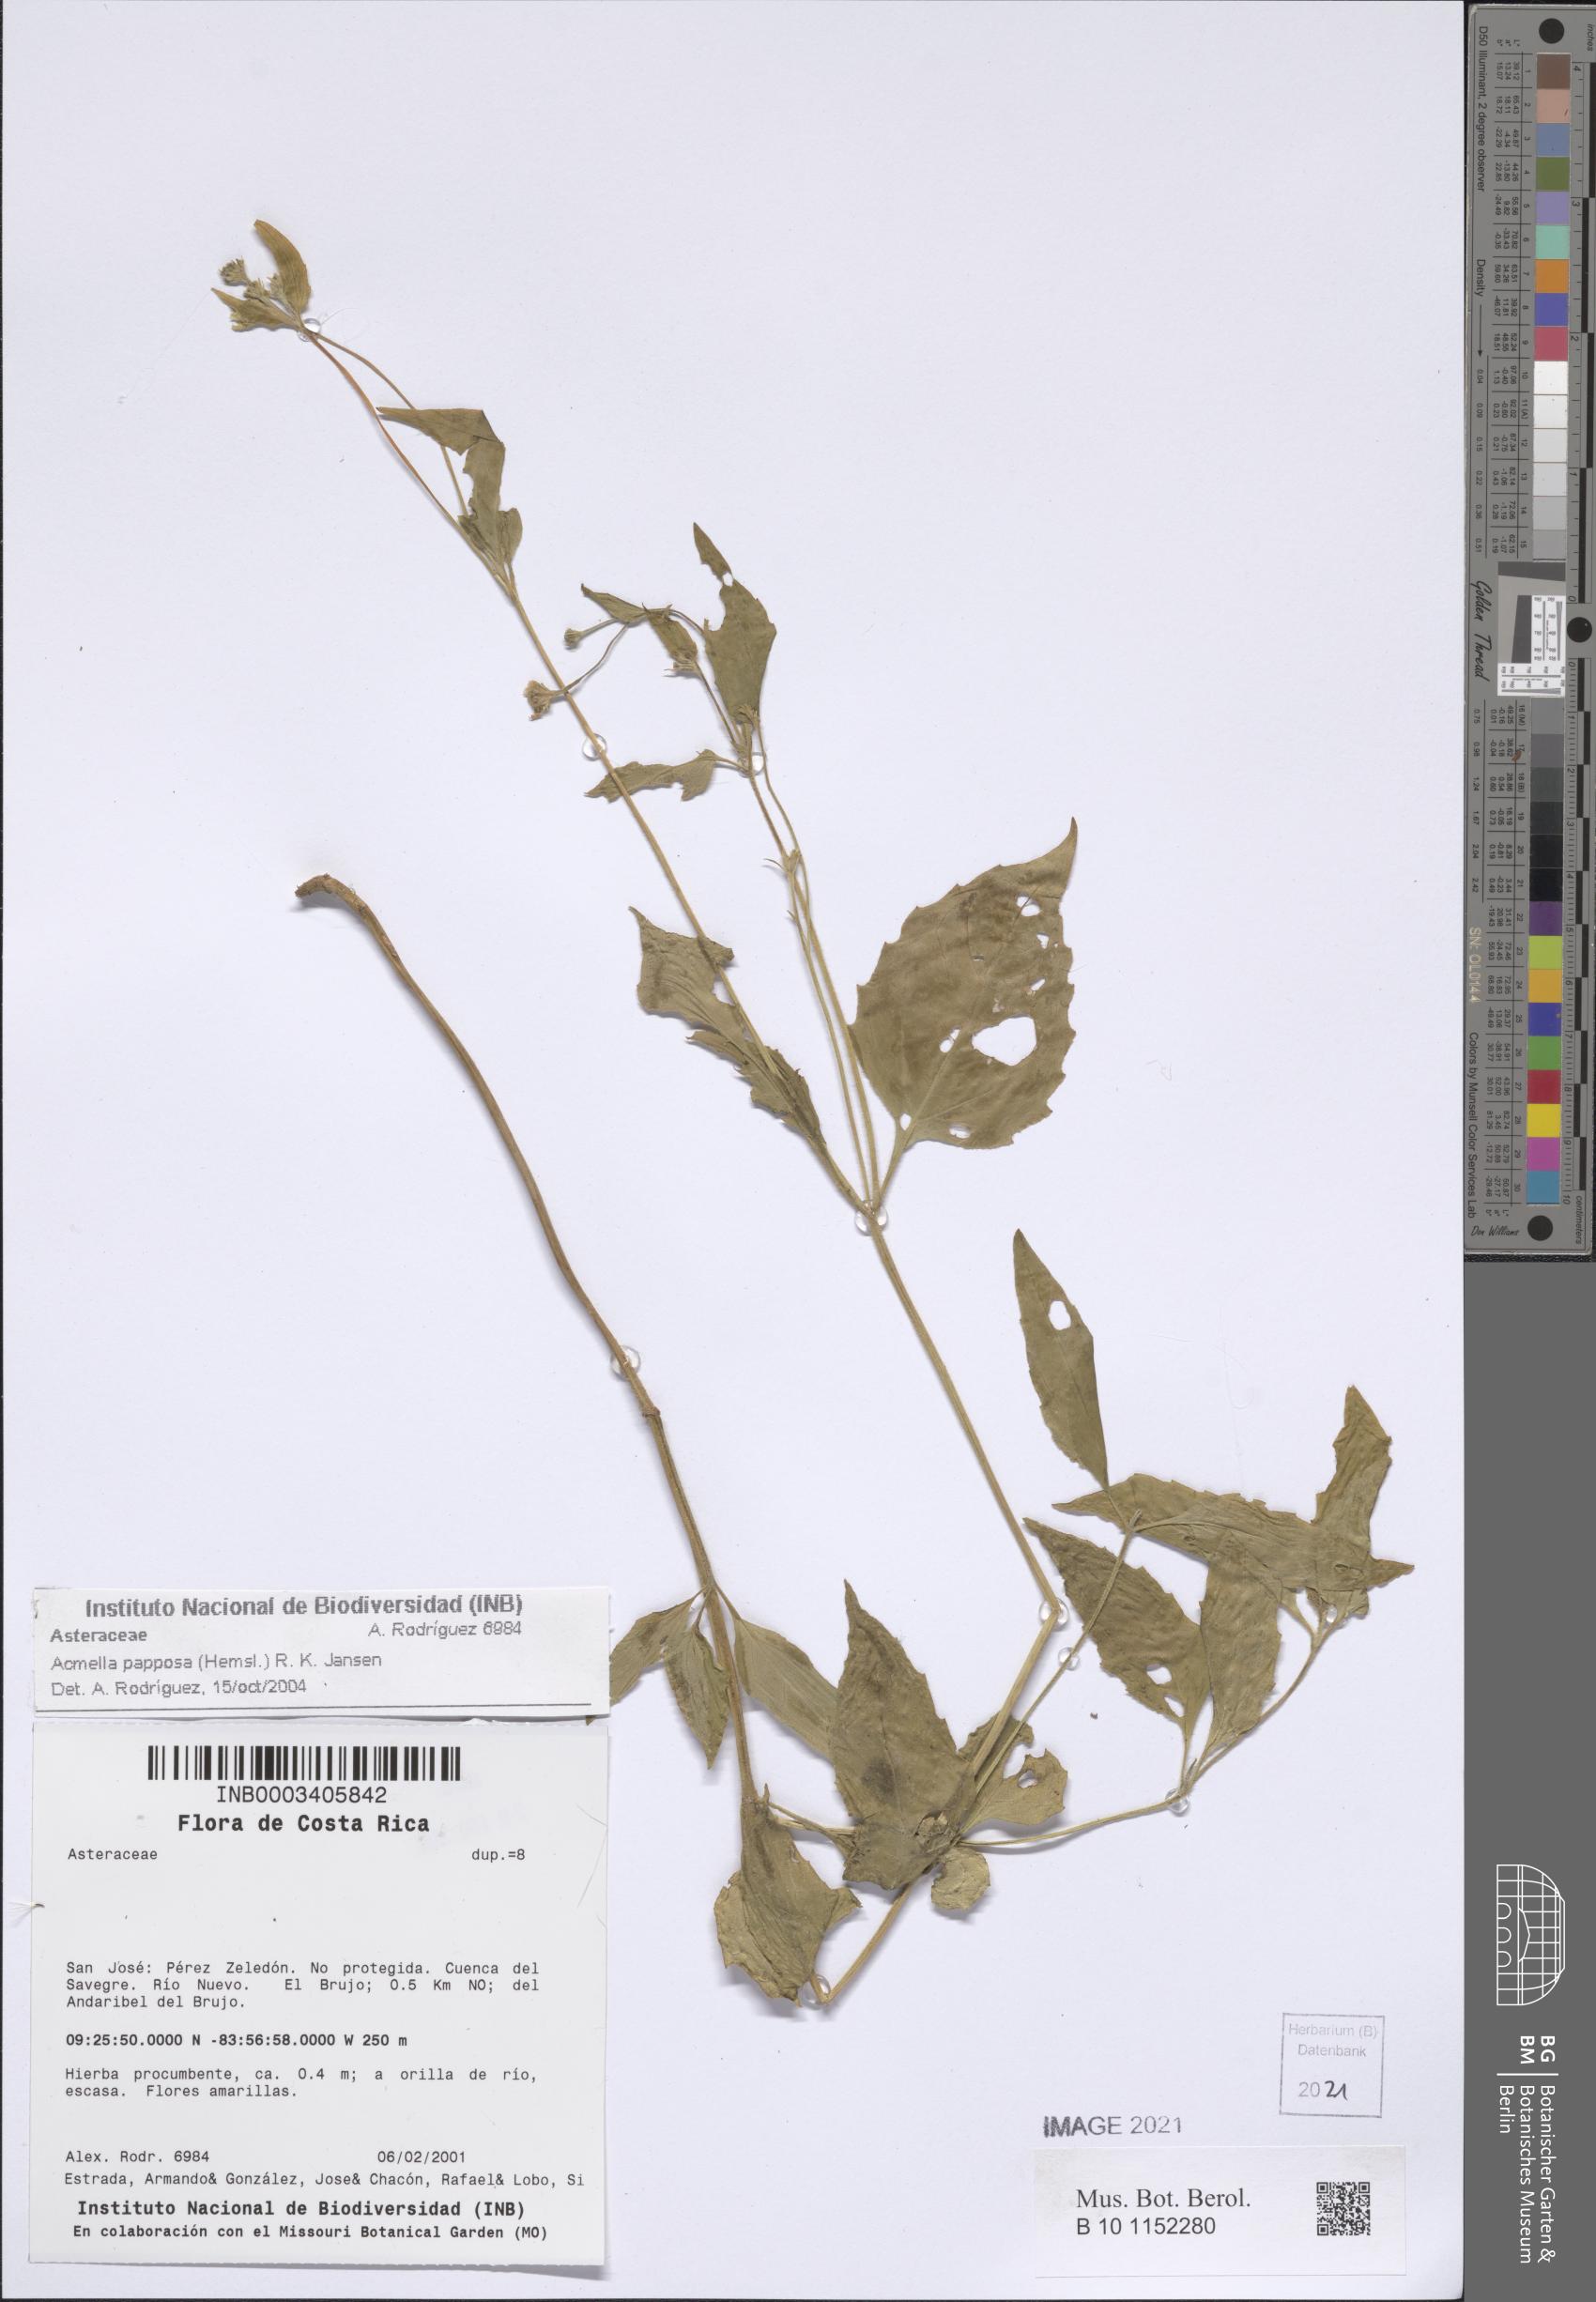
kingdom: Plantae
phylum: Tracheophyta
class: Magnoliopsida
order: Asterales
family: Asteraceae
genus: Acmella
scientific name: Acmella papposa
